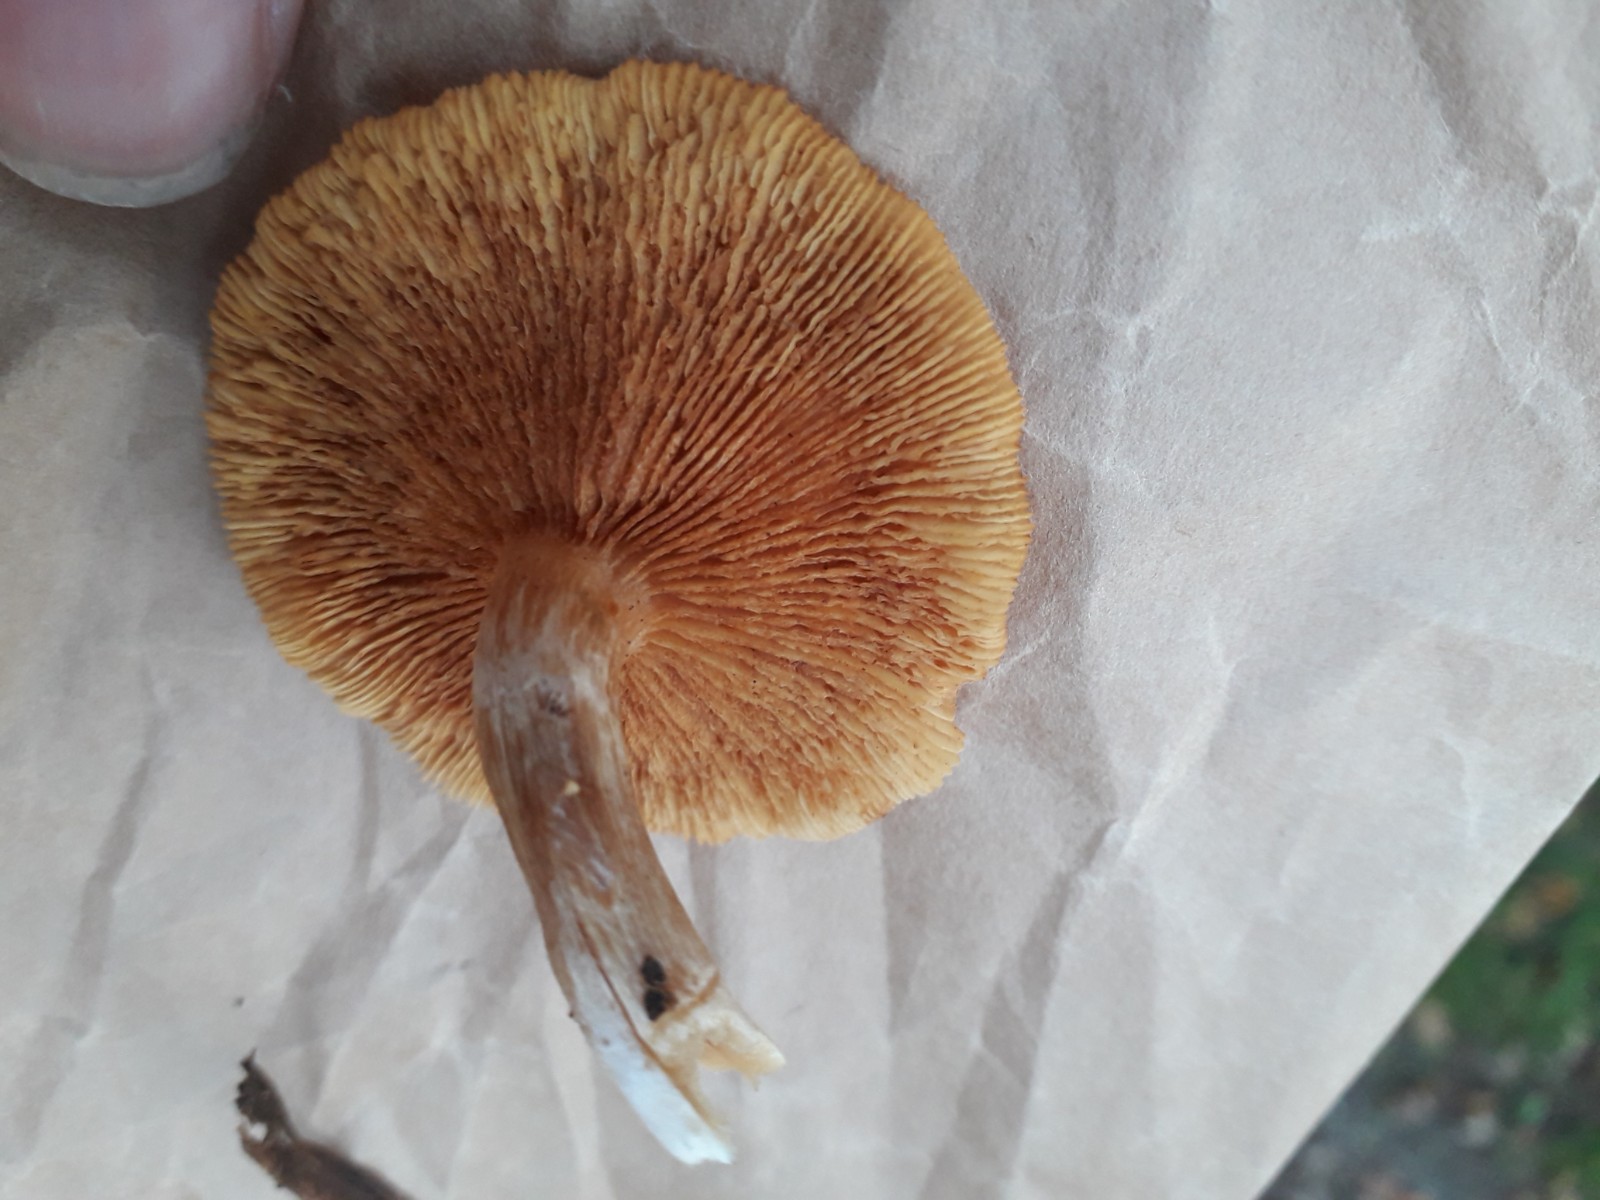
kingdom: Fungi
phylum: Basidiomycota
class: Agaricomycetes
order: Agaricales
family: Hymenogastraceae
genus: Gymnopilus
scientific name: Gymnopilus penetrans
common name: plettet flammehat
